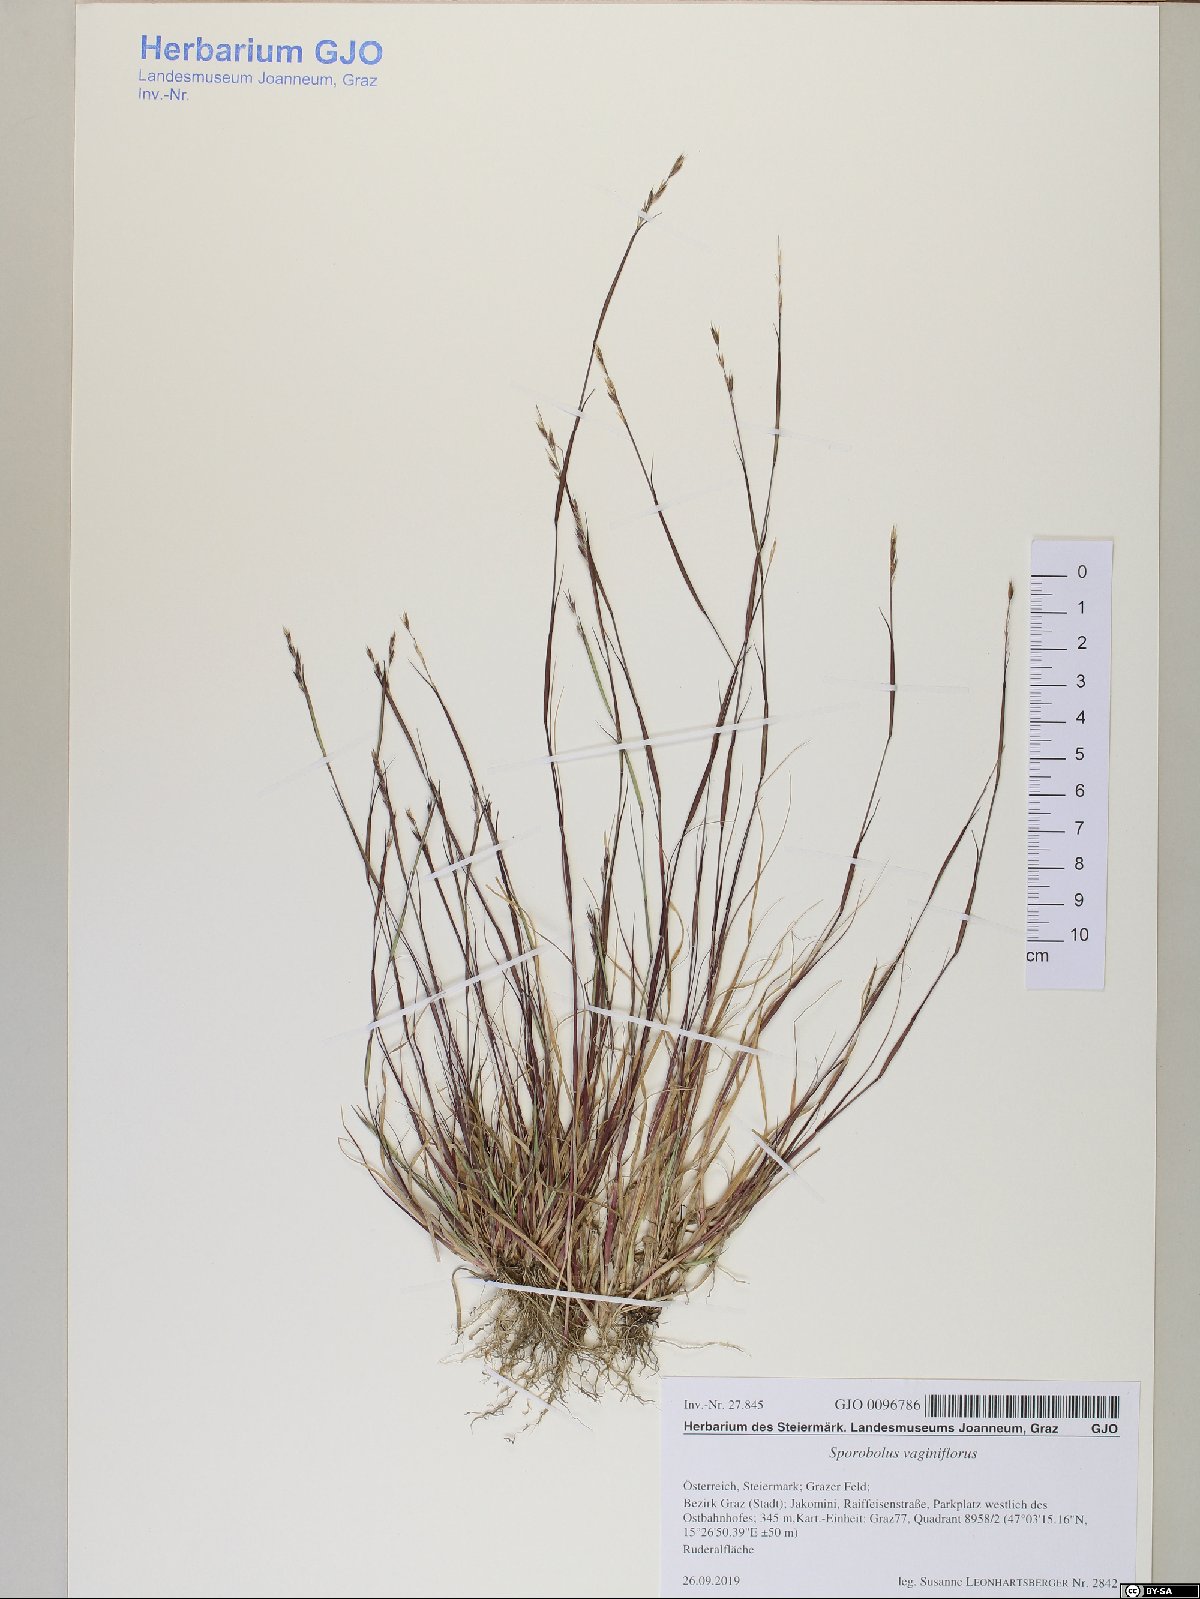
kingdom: Plantae
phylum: Tracheophyta
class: Liliopsida
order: Poales
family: Poaceae
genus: Sporobolus
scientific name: Sporobolus vaginiflorus
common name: Poverty dropseed
